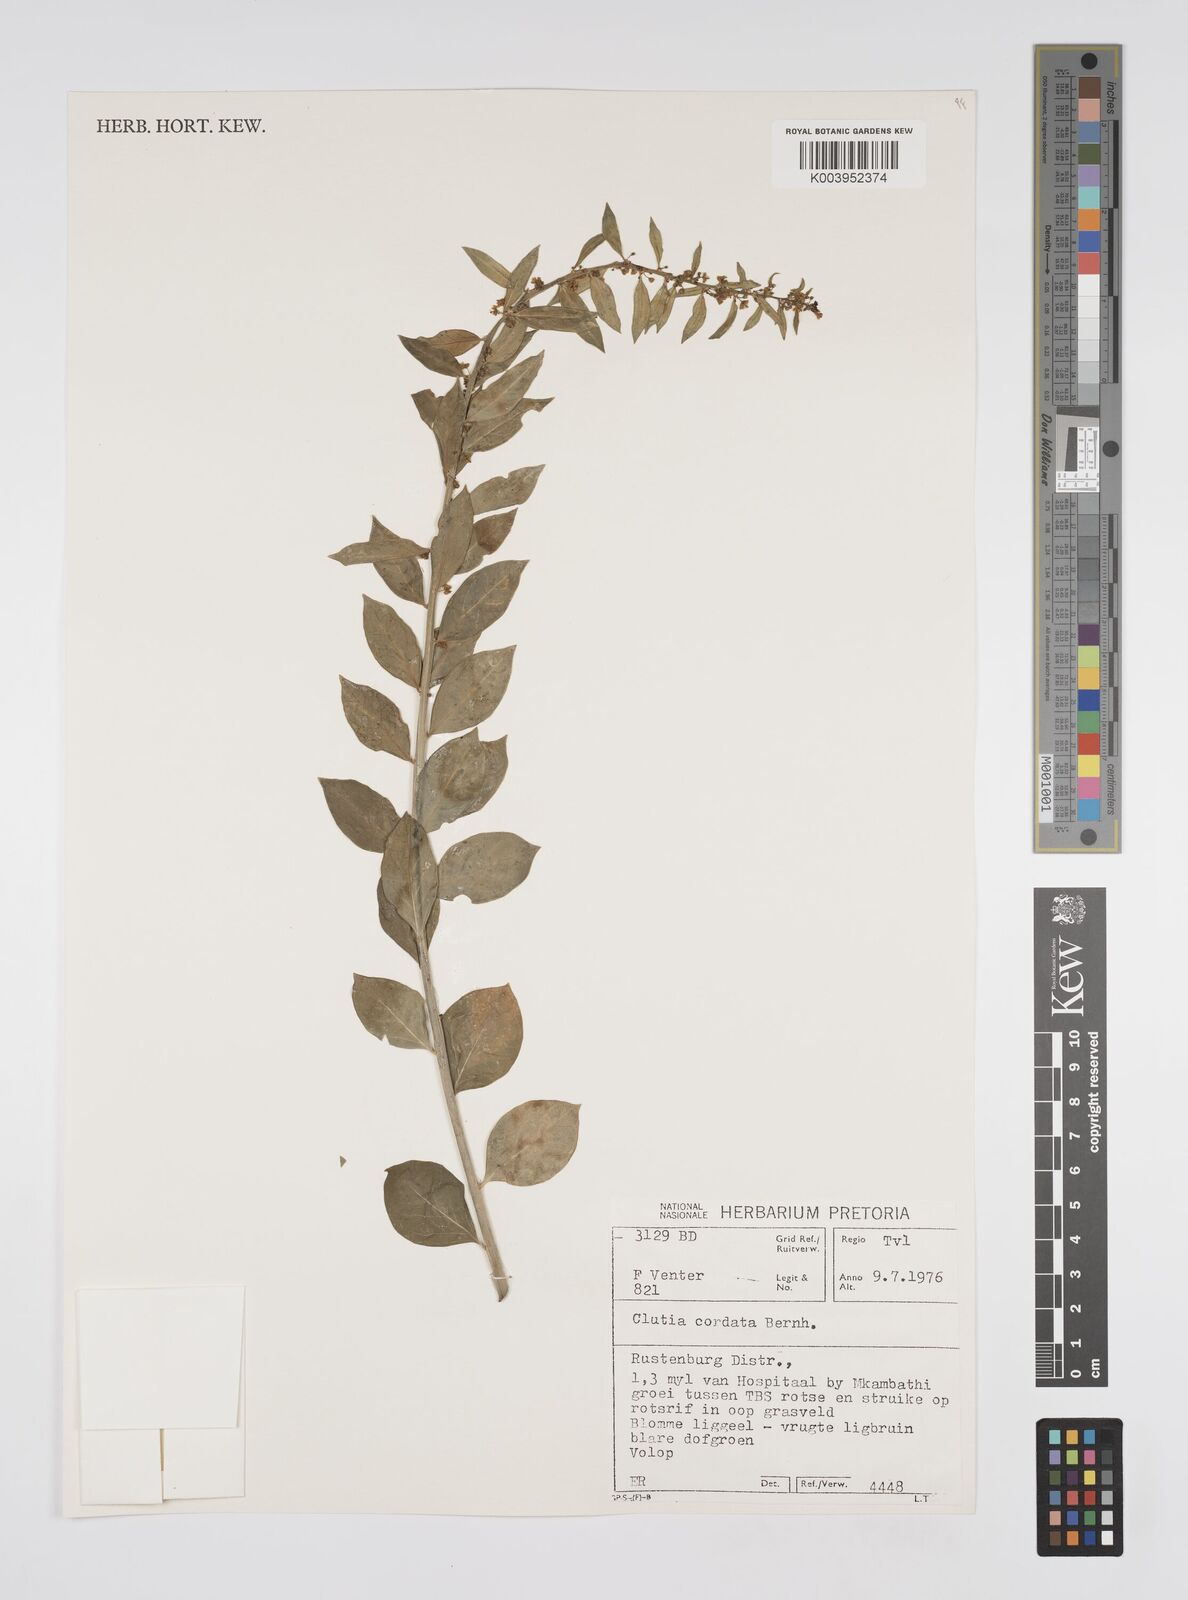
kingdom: Plantae
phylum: Tracheophyta
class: Magnoliopsida
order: Malpighiales
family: Peraceae
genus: Clutia
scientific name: Clutia cordata
